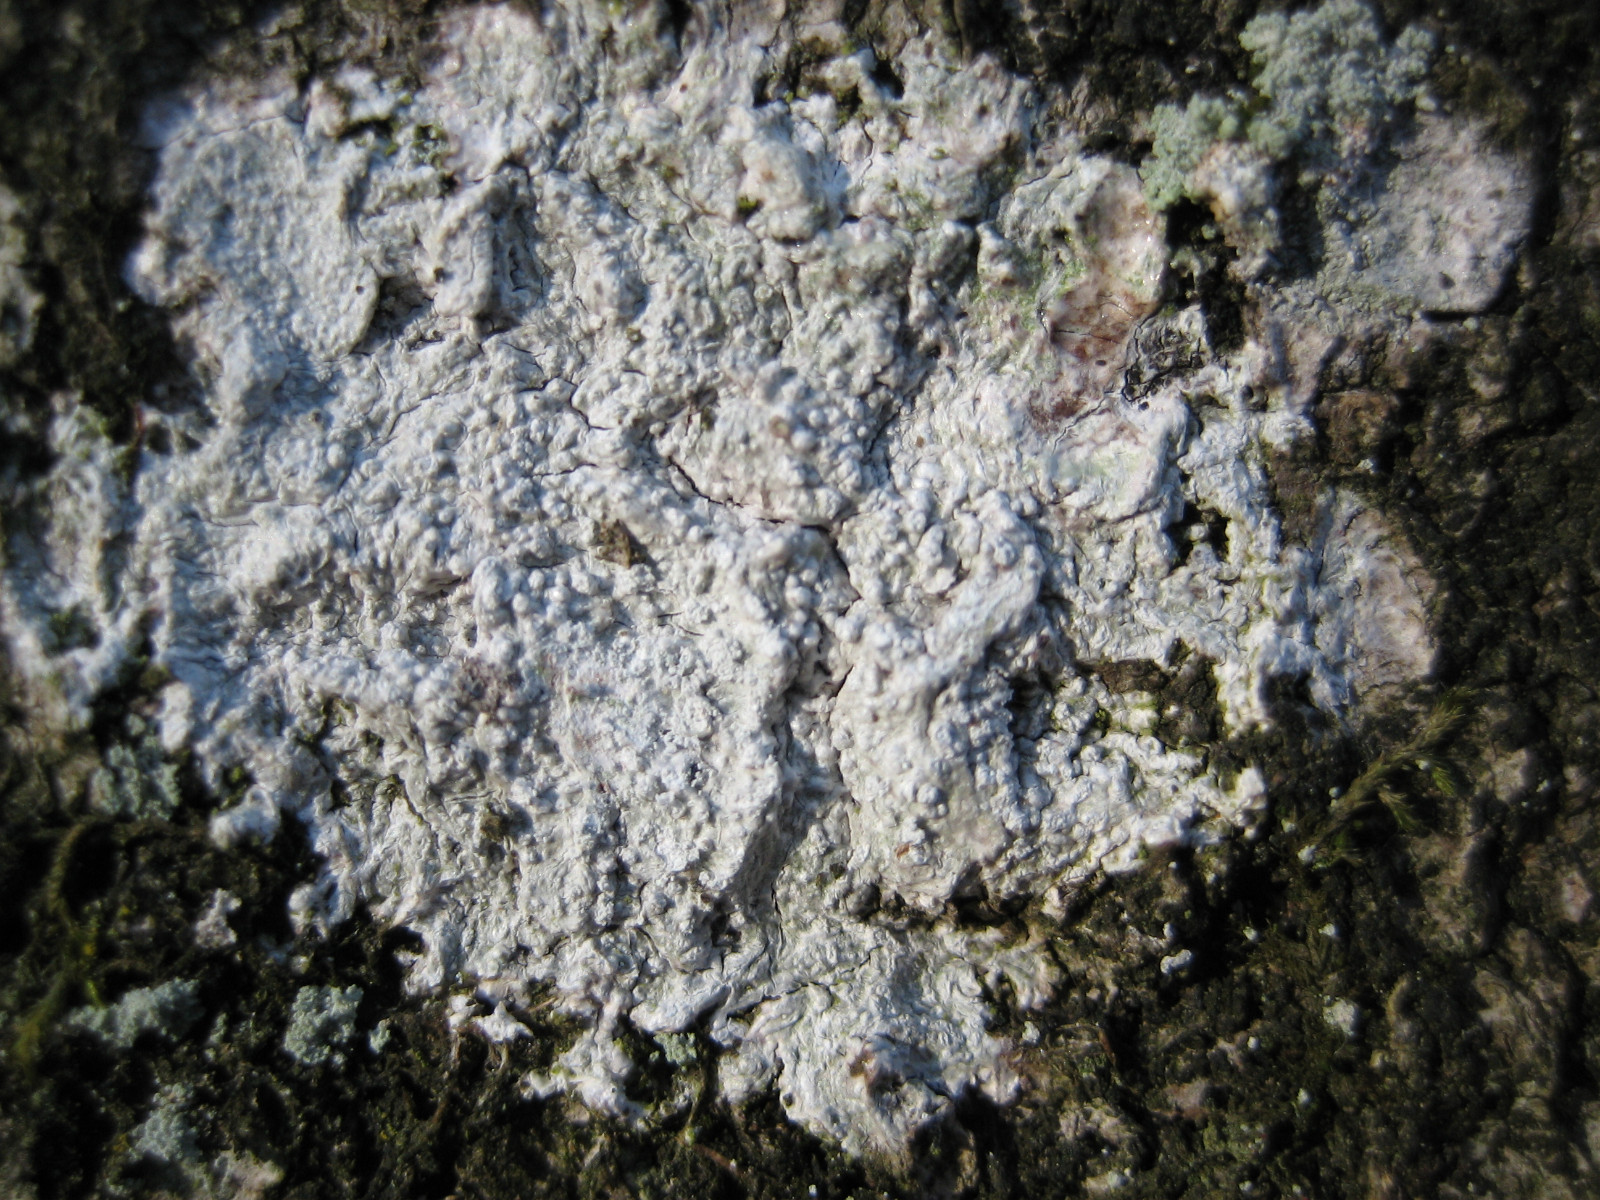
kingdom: Fungi
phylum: Ascomycota
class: Lecanoromycetes
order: Pertusariales
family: Pertusariaceae
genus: Lepra
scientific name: Lepra amara
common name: bitter prikvortelav
